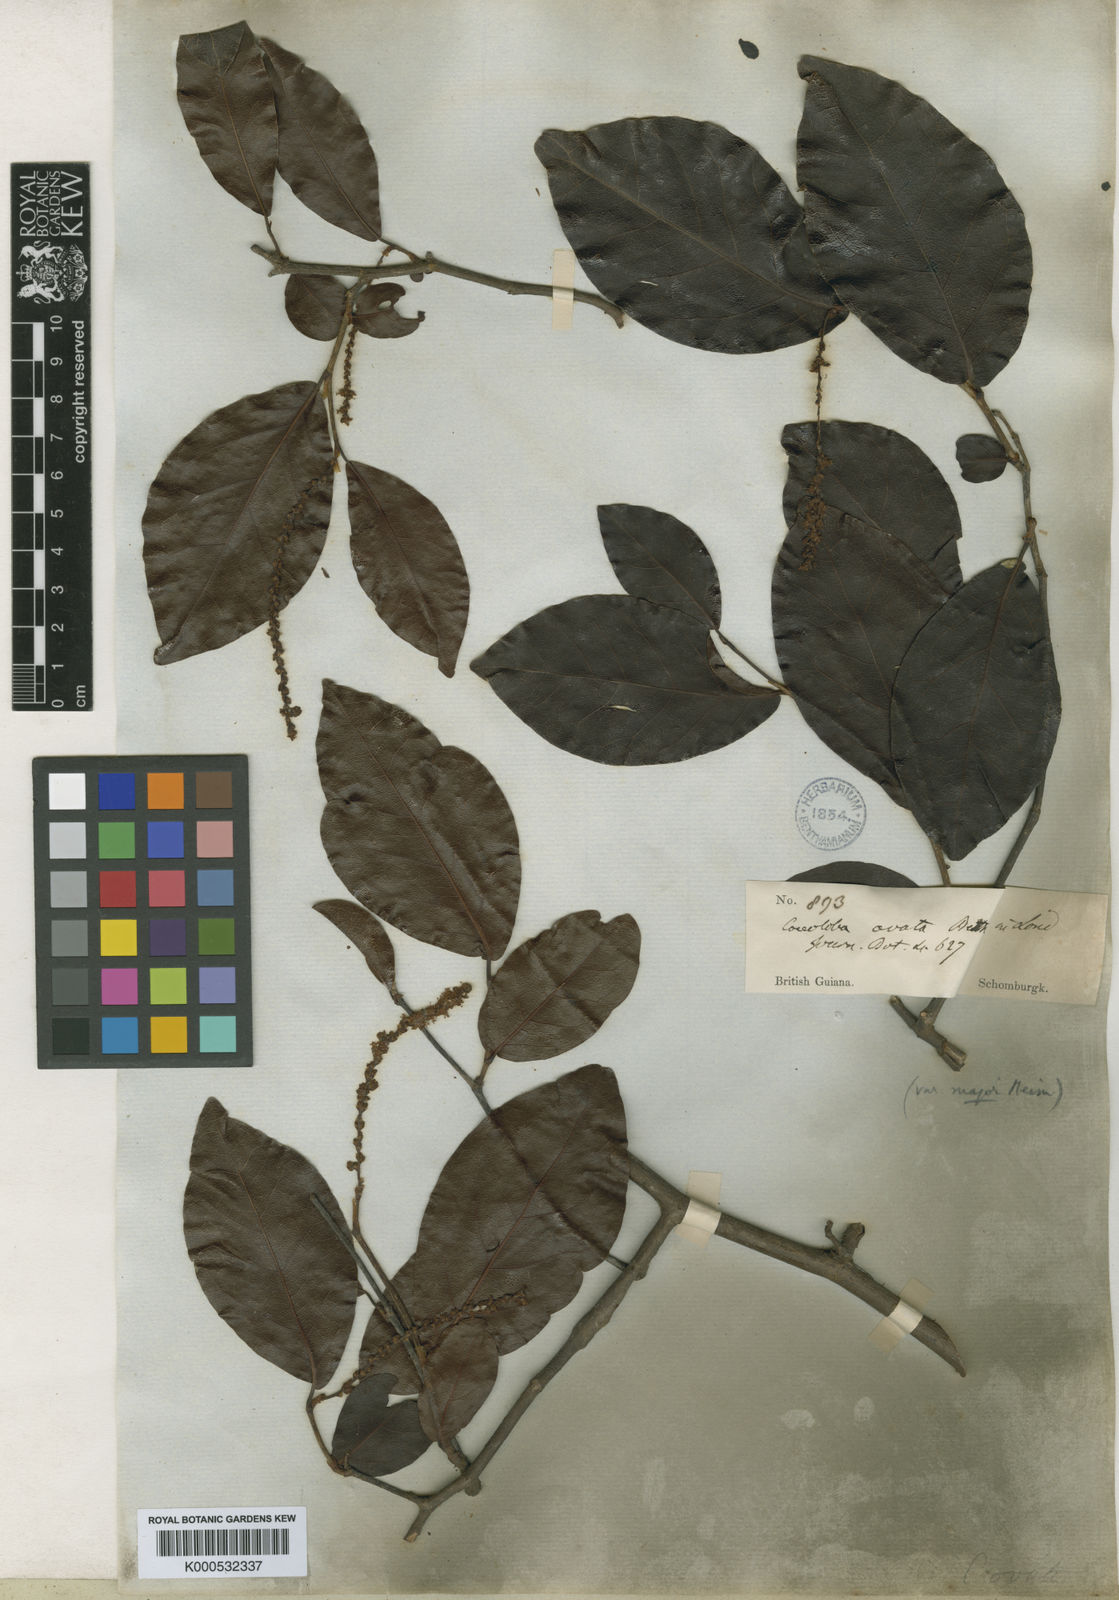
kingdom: Plantae
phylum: Tracheophyta
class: Magnoliopsida
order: Caryophyllales
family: Polygonaceae
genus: Coccoloba
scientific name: Coccoloba ovata
